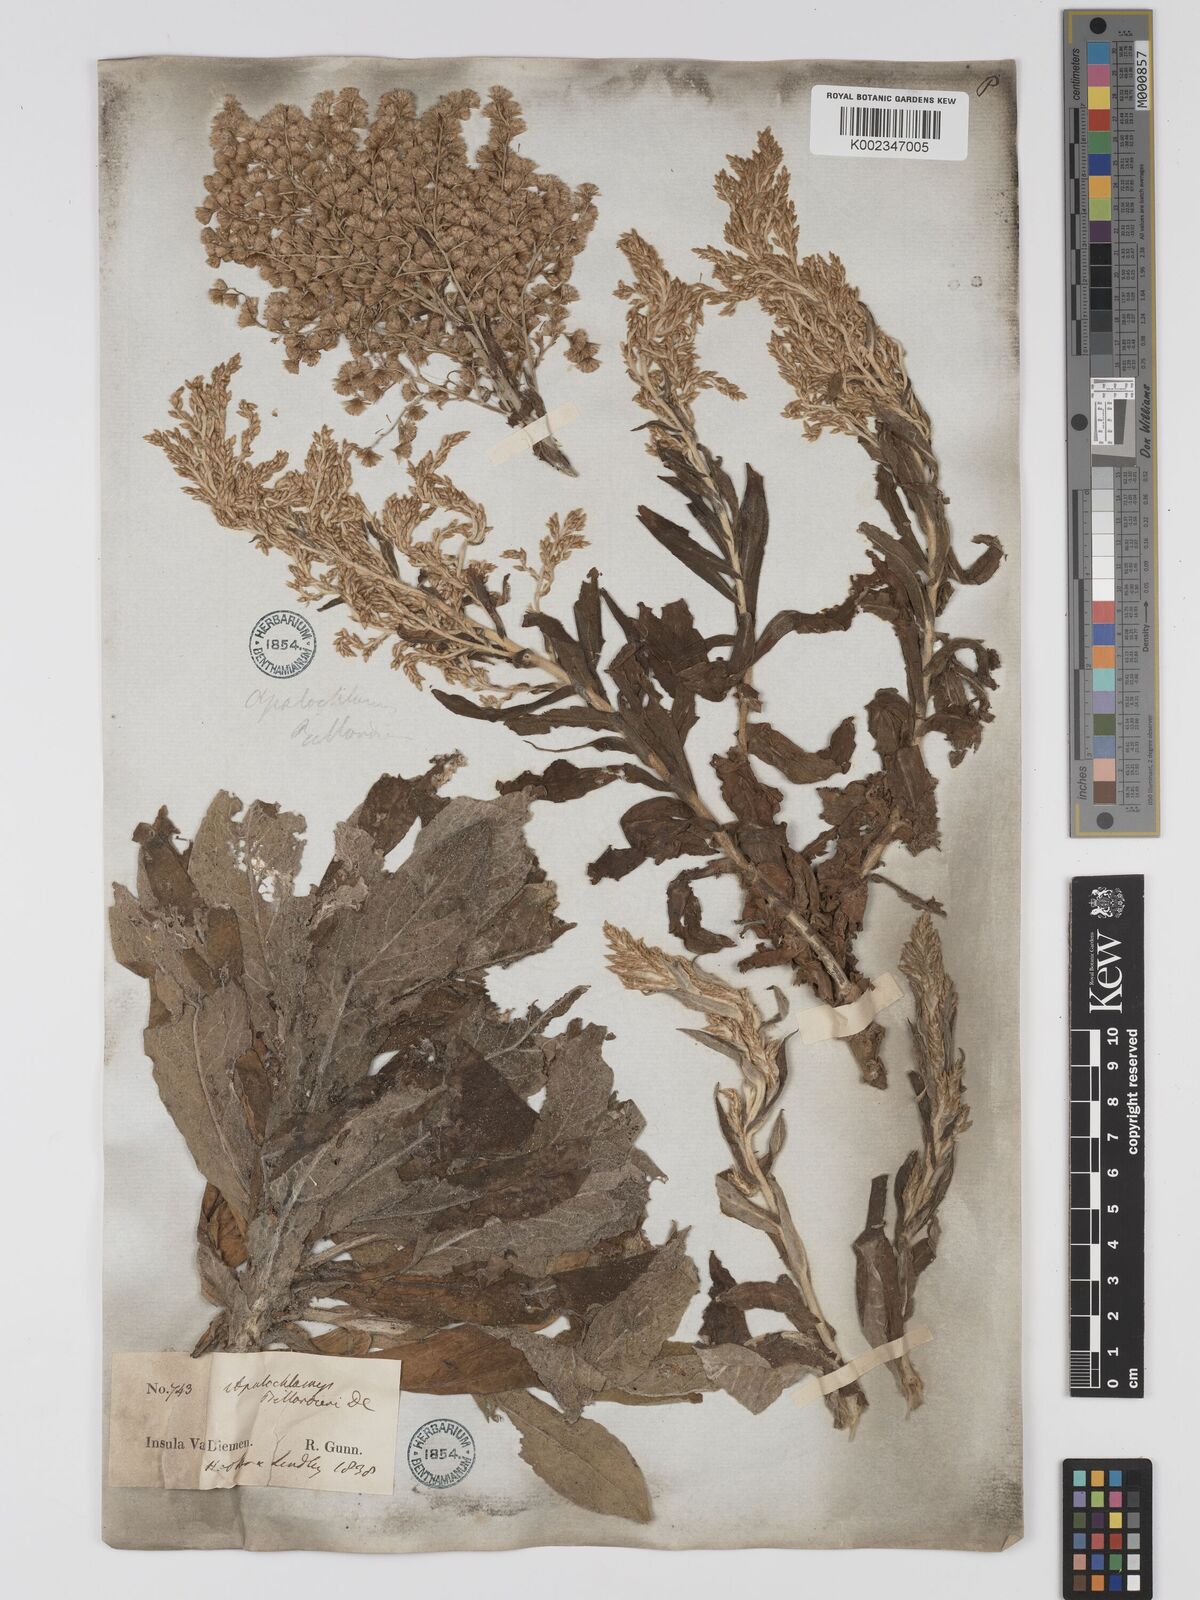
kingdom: Plantae
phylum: Tracheophyta
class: Magnoliopsida
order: Asterales
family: Asteraceae
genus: Apalochlamys
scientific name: Apalochlamys spectabilis
